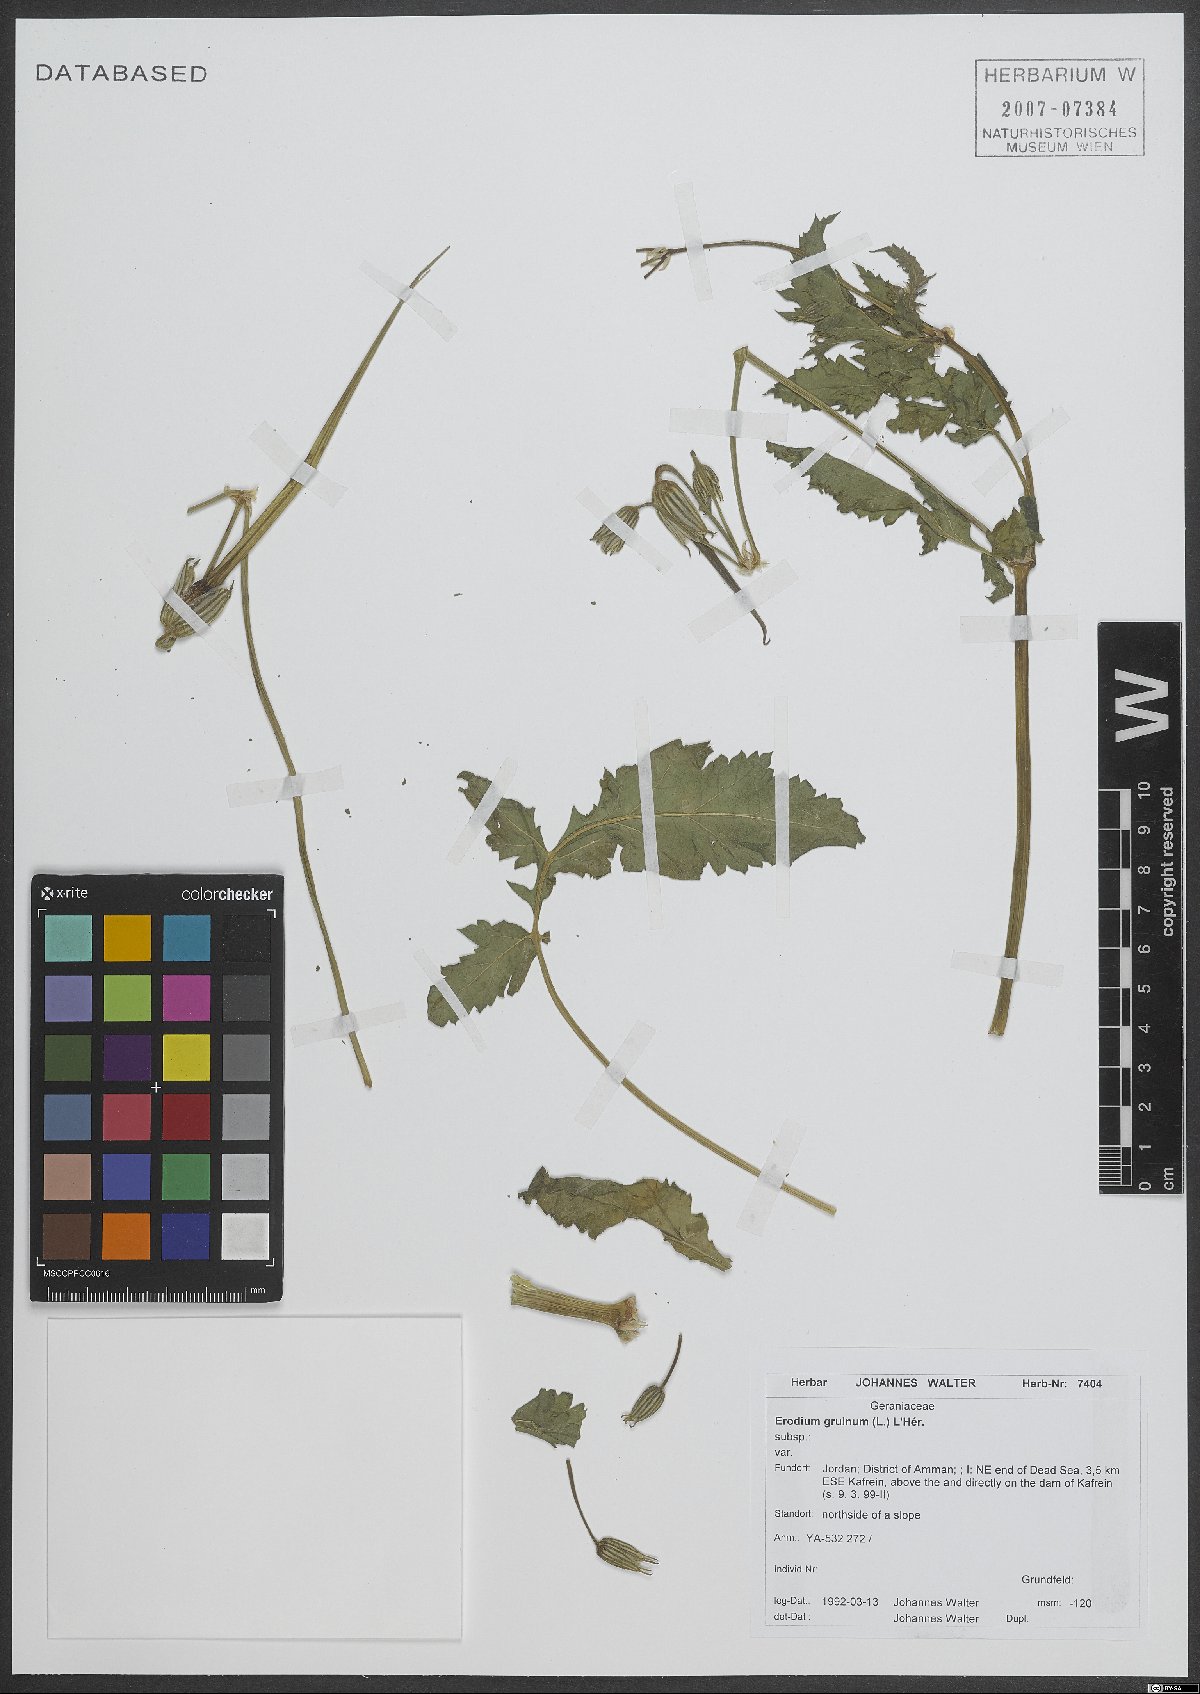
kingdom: Plantae
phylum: Tracheophyta
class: Magnoliopsida
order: Geraniales
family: Geraniaceae
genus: Erodium
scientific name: Erodium gruinum
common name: Iranian stork's bill
